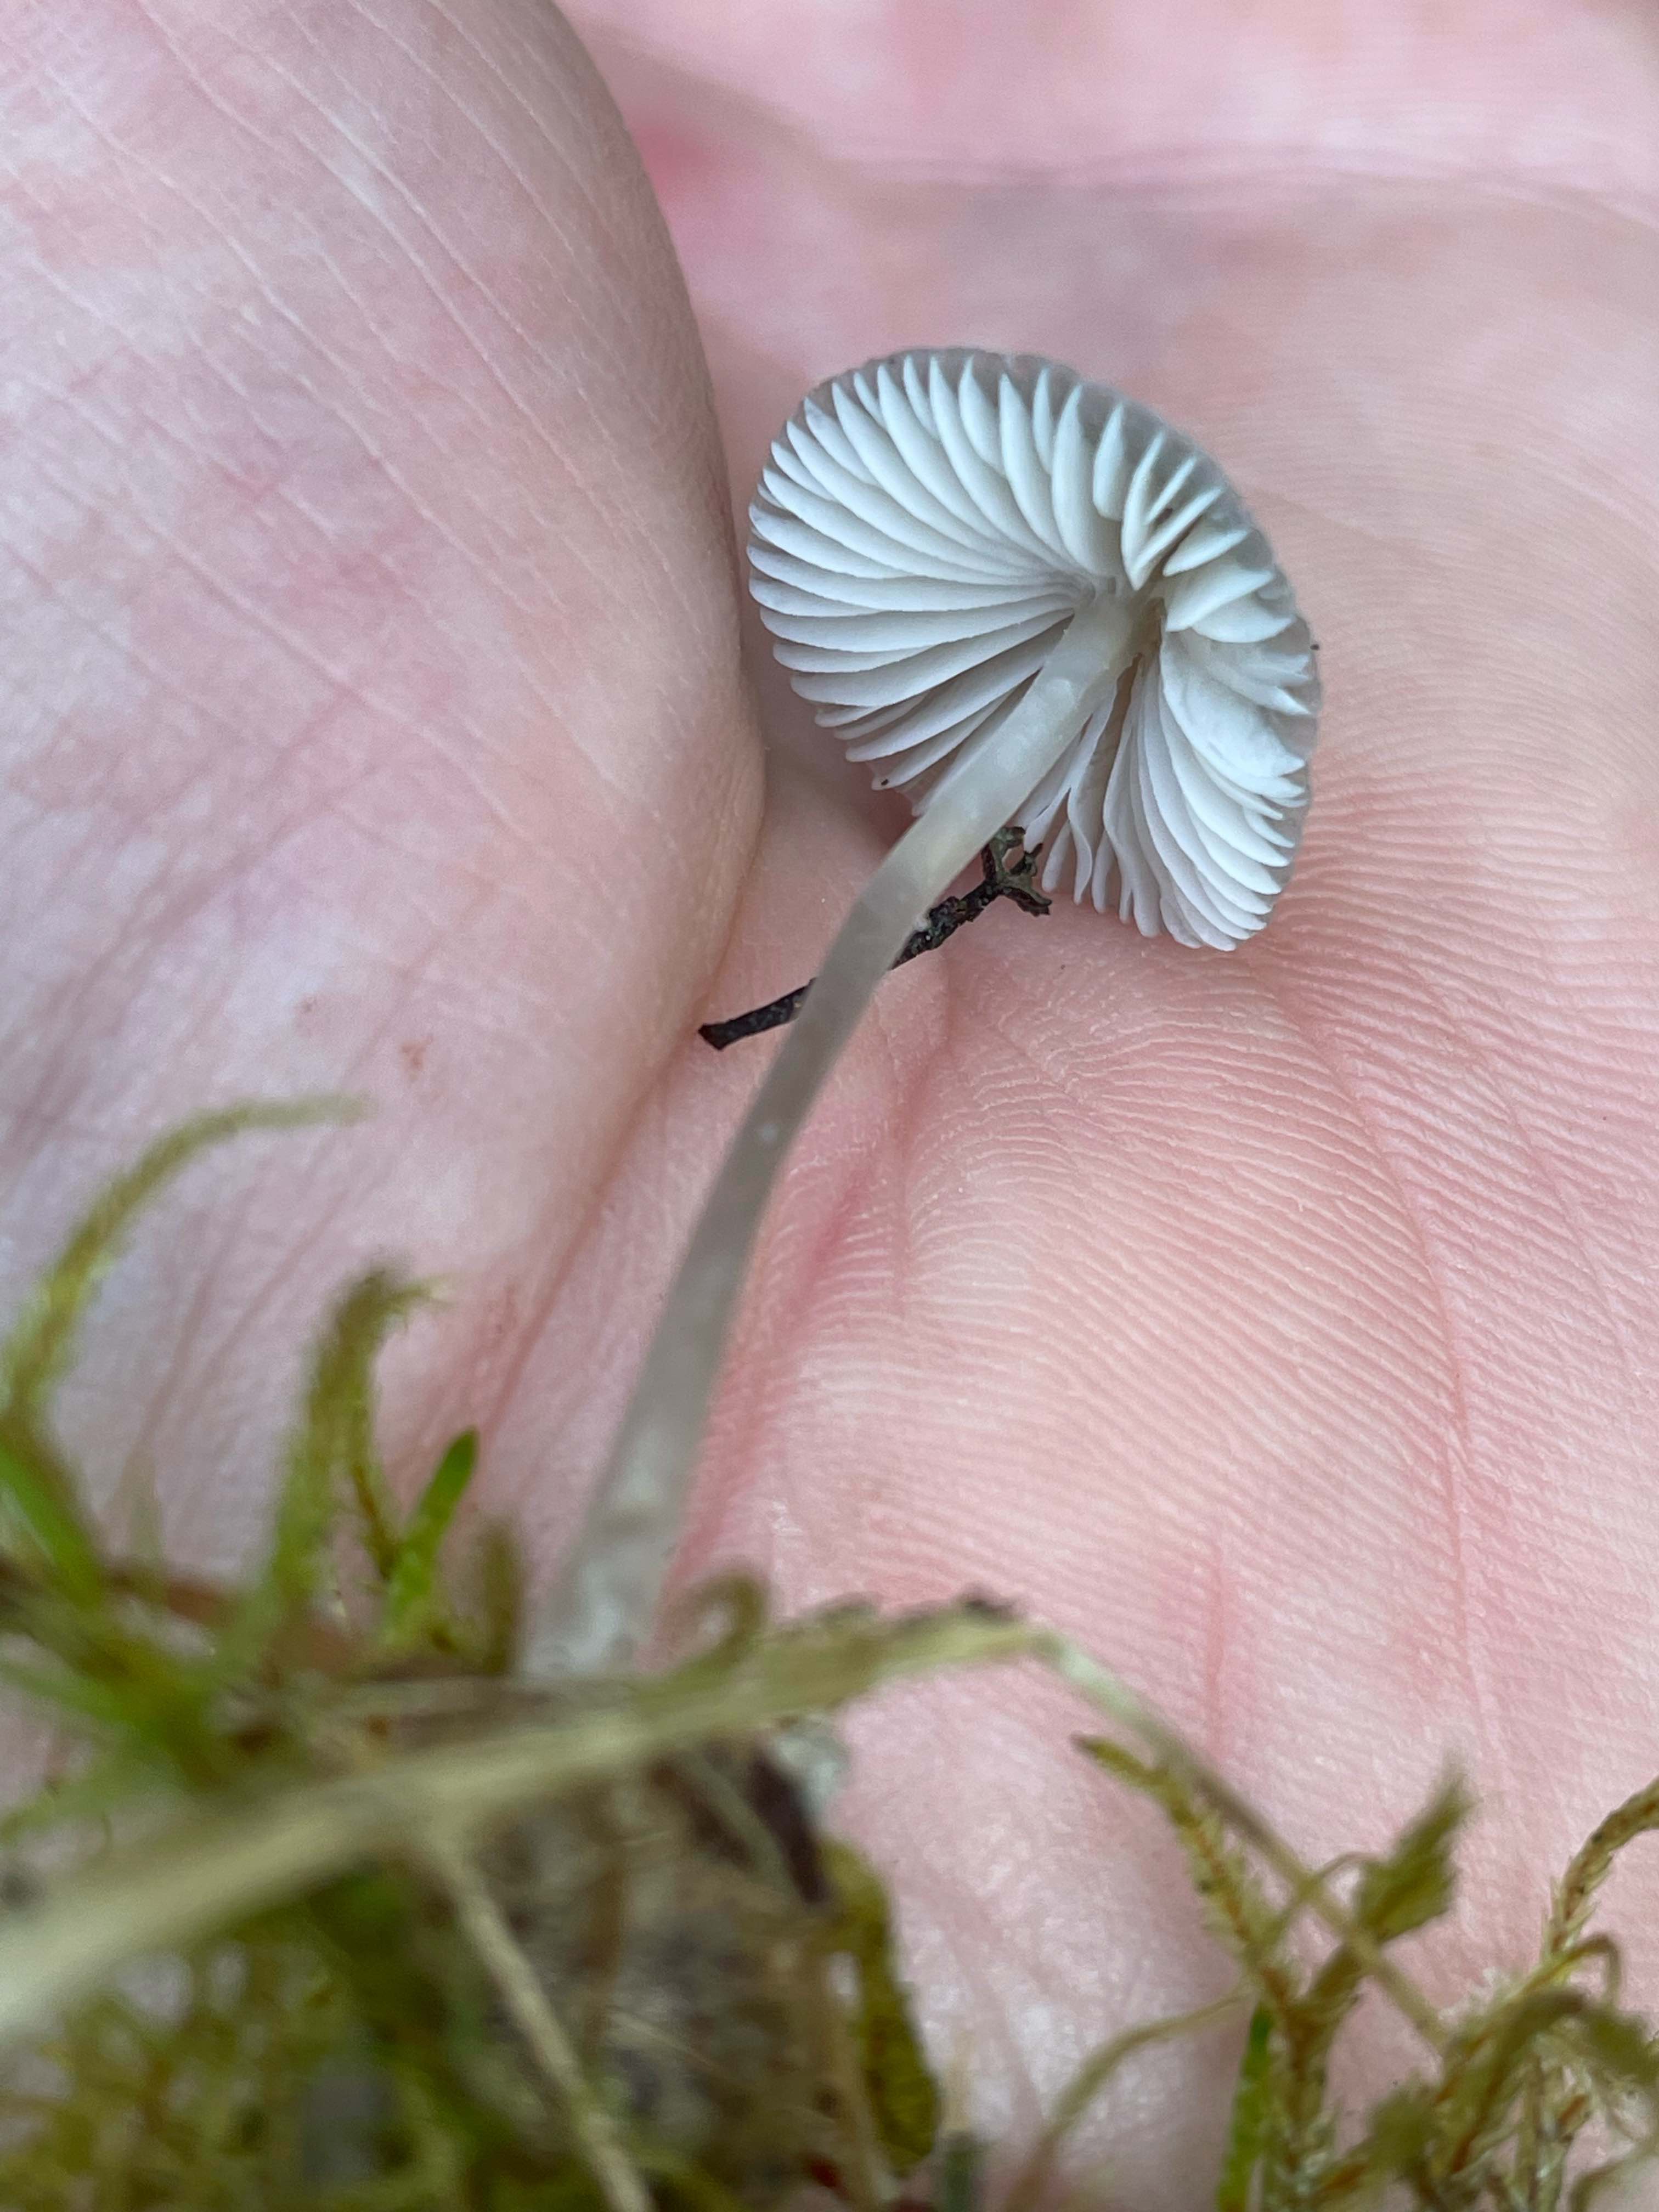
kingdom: Fungi
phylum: Basidiomycota
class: Agaricomycetes
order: Agaricales
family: Mycenaceae
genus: Mycena
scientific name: Mycena
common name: huesvamp
